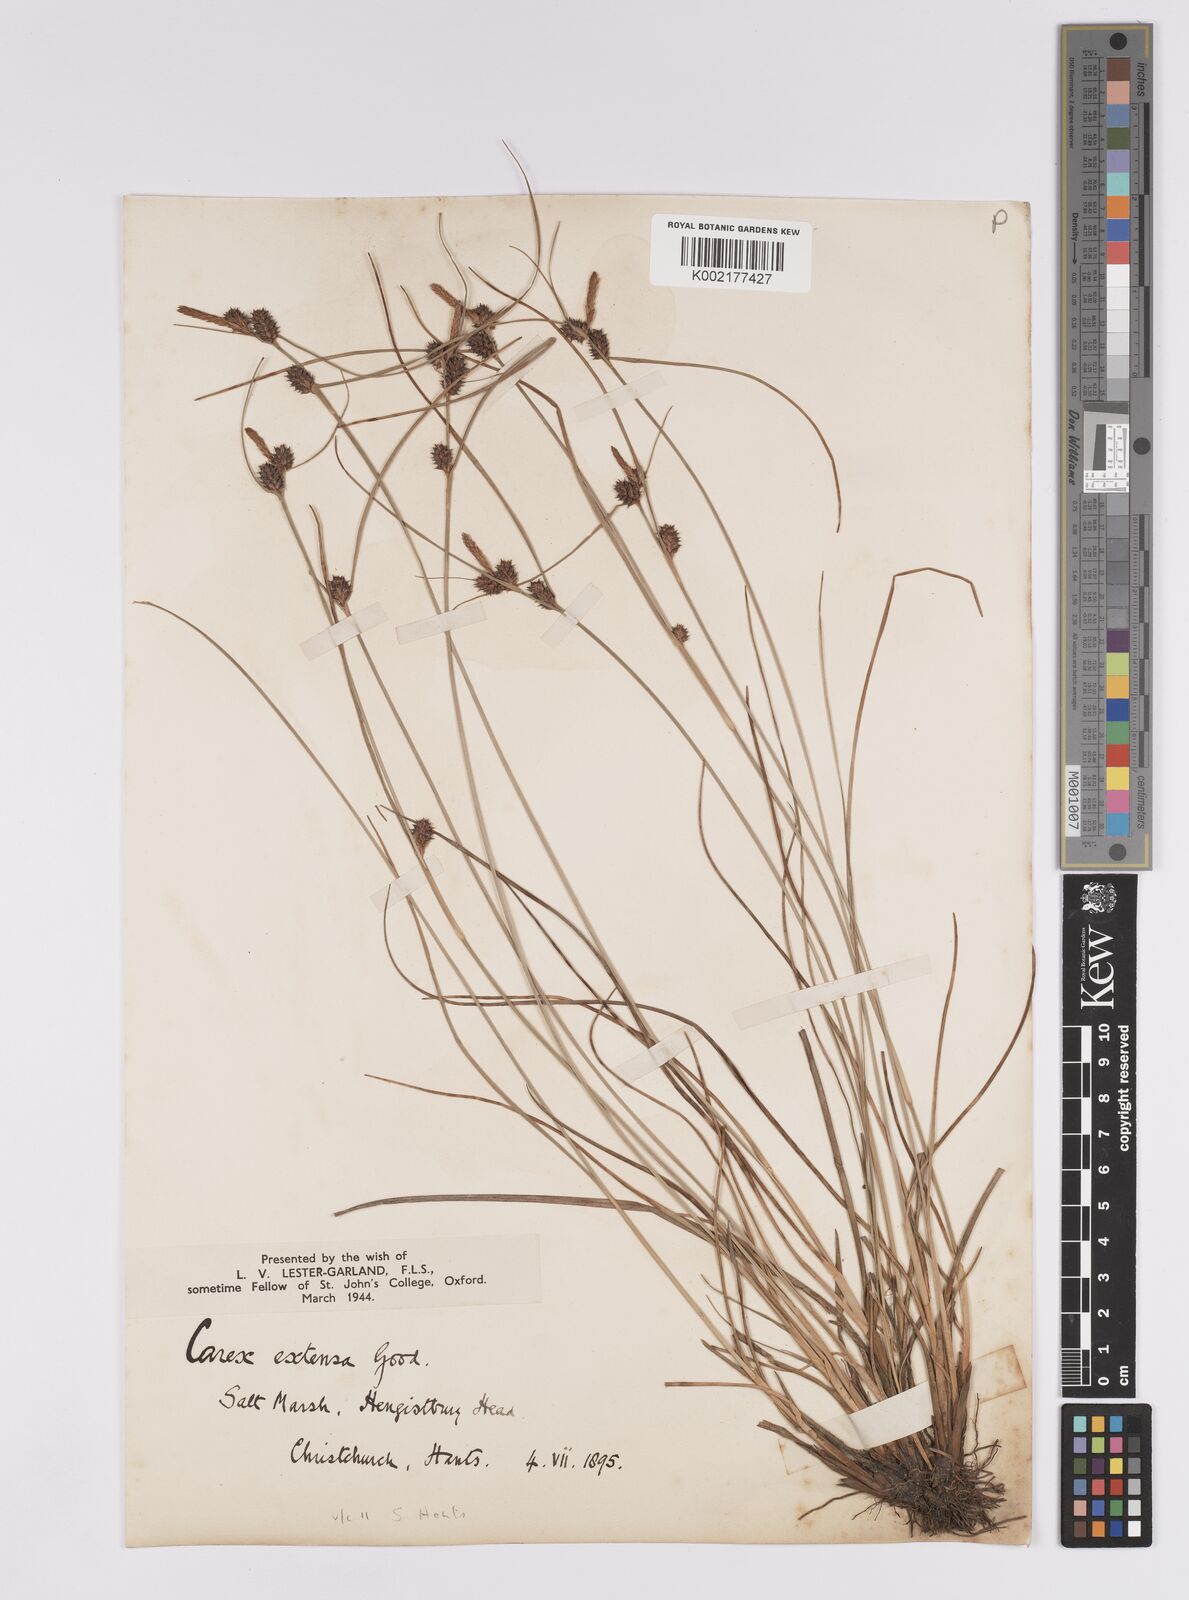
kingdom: Plantae
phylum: Tracheophyta
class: Liliopsida
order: Poales
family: Cyperaceae
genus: Carex
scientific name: Carex extensa
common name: Long-bracted sedge
